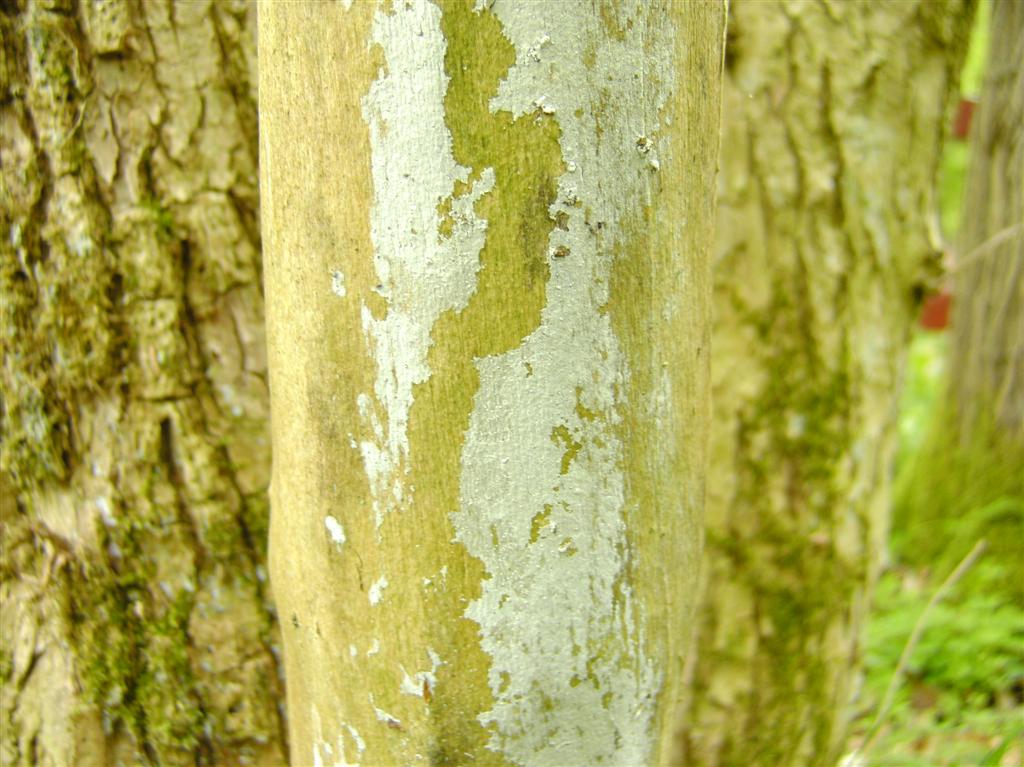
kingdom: Fungi
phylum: Basidiomycota
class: Agaricomycetes
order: Corticiales
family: Corticiaceae
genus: Lyomyces
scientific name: Lyomyces sambuci
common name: almindelig hyldehinde
